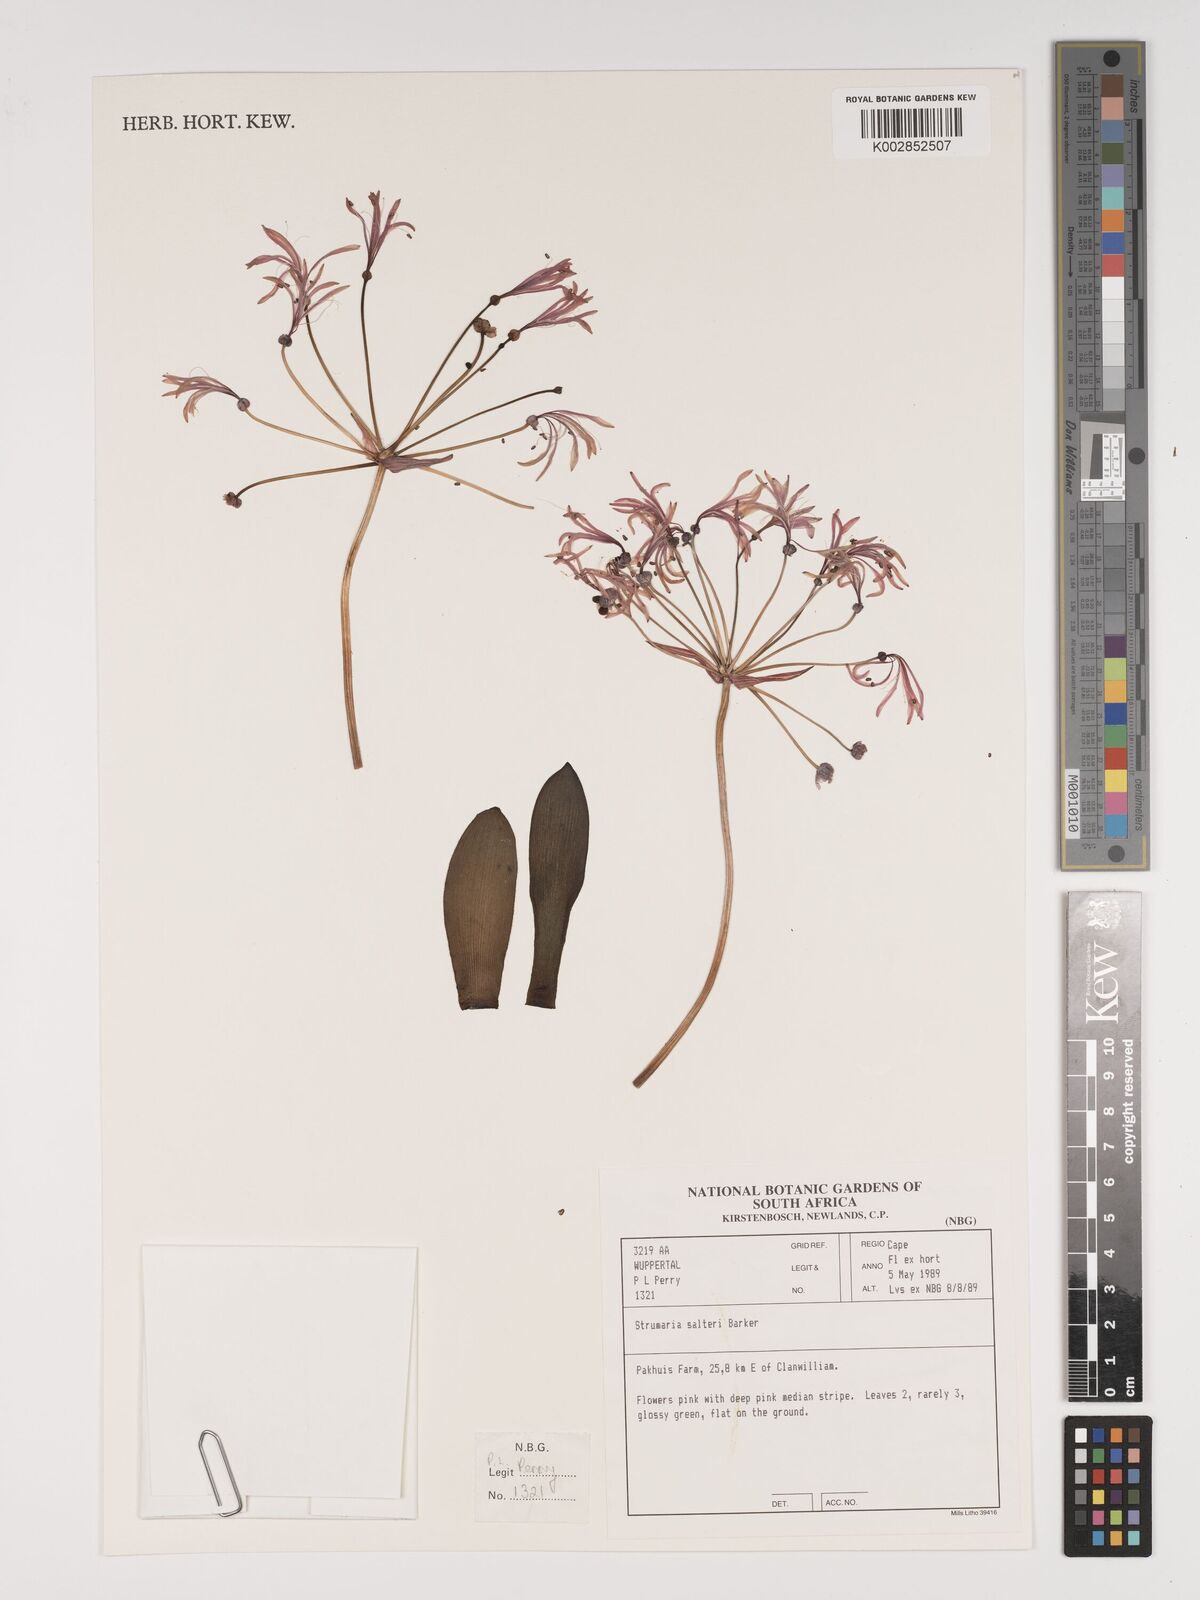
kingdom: Plantae
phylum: Tracheophyta
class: Liliopsida
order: Asparagales
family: Amaryllidaceae
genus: Strumaria
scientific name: Strumaria salteri
